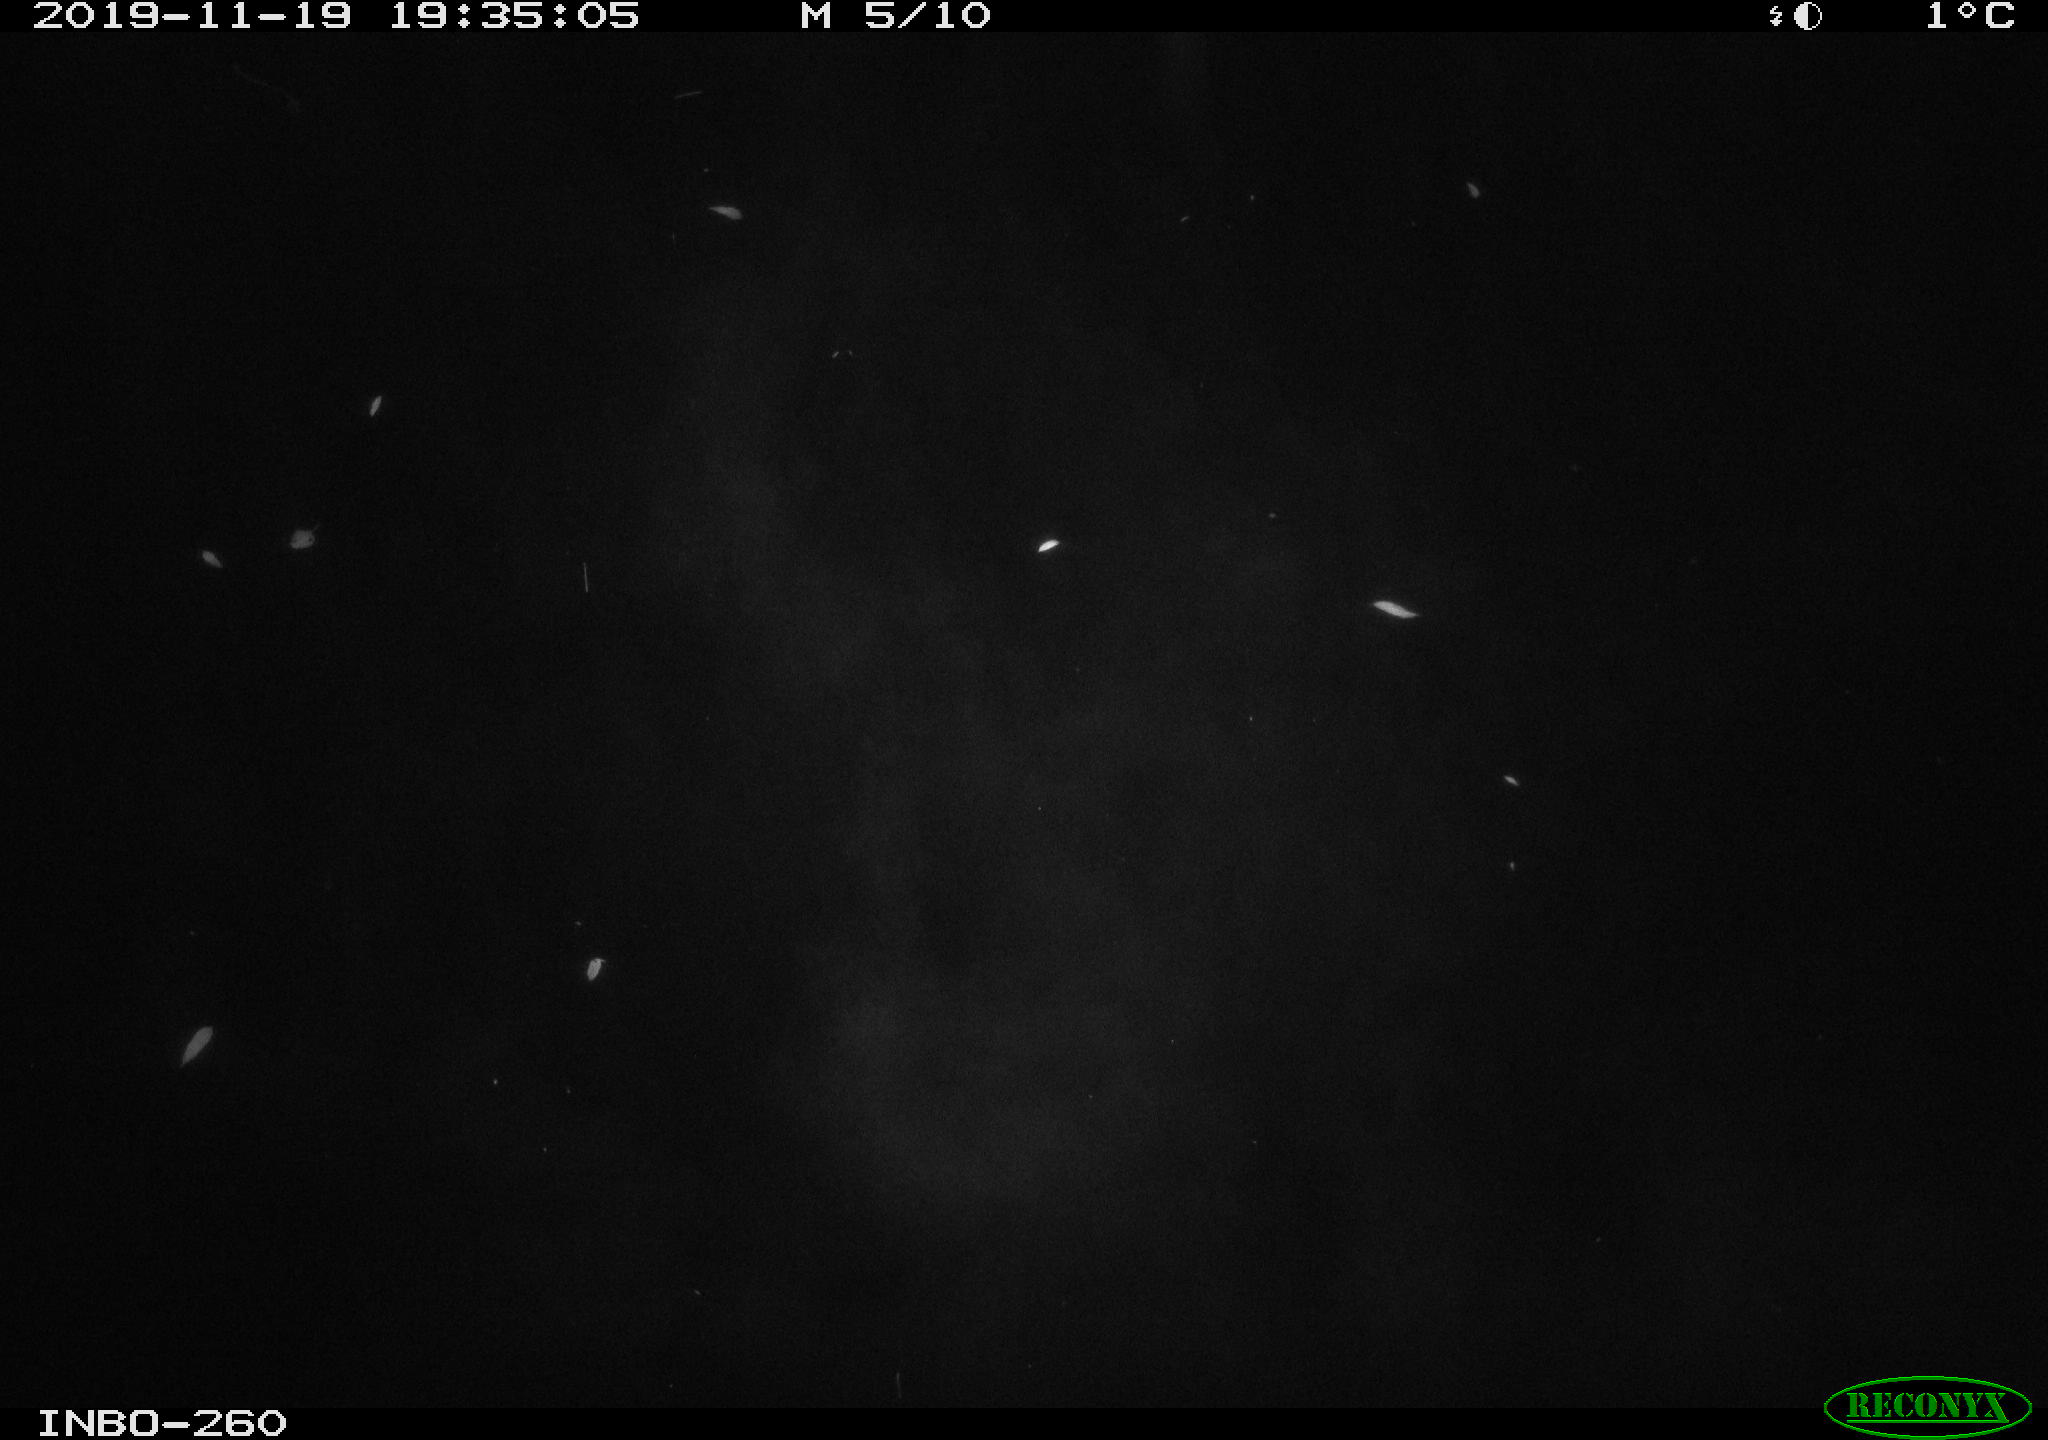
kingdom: Animalia
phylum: Chordata
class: Aves
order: Anseriformes
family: Anatidae
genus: Anas
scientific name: Anas platyrhynchos
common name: Mallard
